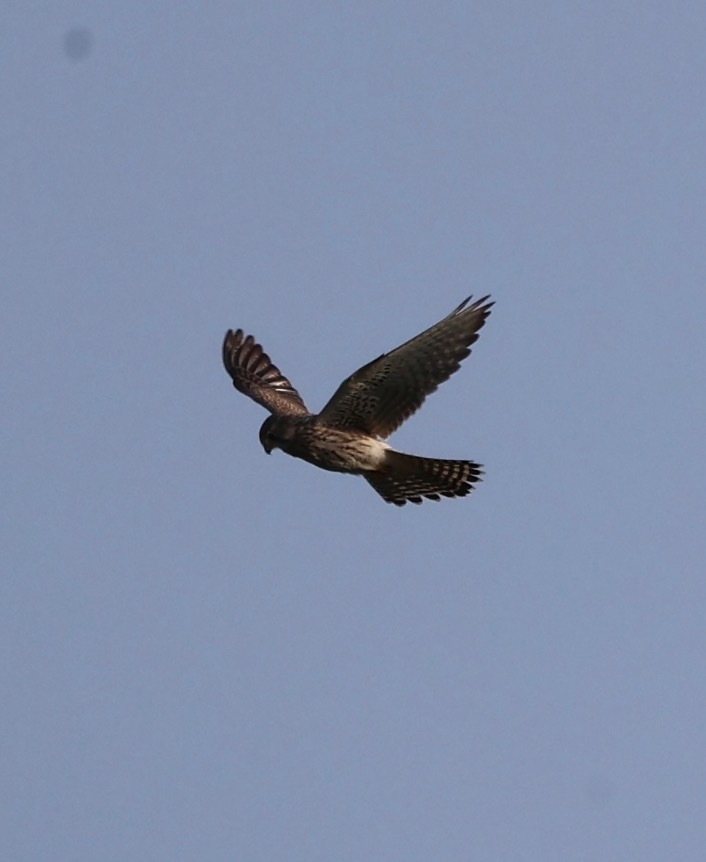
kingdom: Animalia
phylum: Chordata
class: Aves
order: Falconiformes
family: Falconidae
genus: Falco
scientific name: Falco tinnunculus
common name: Tårnfalk
